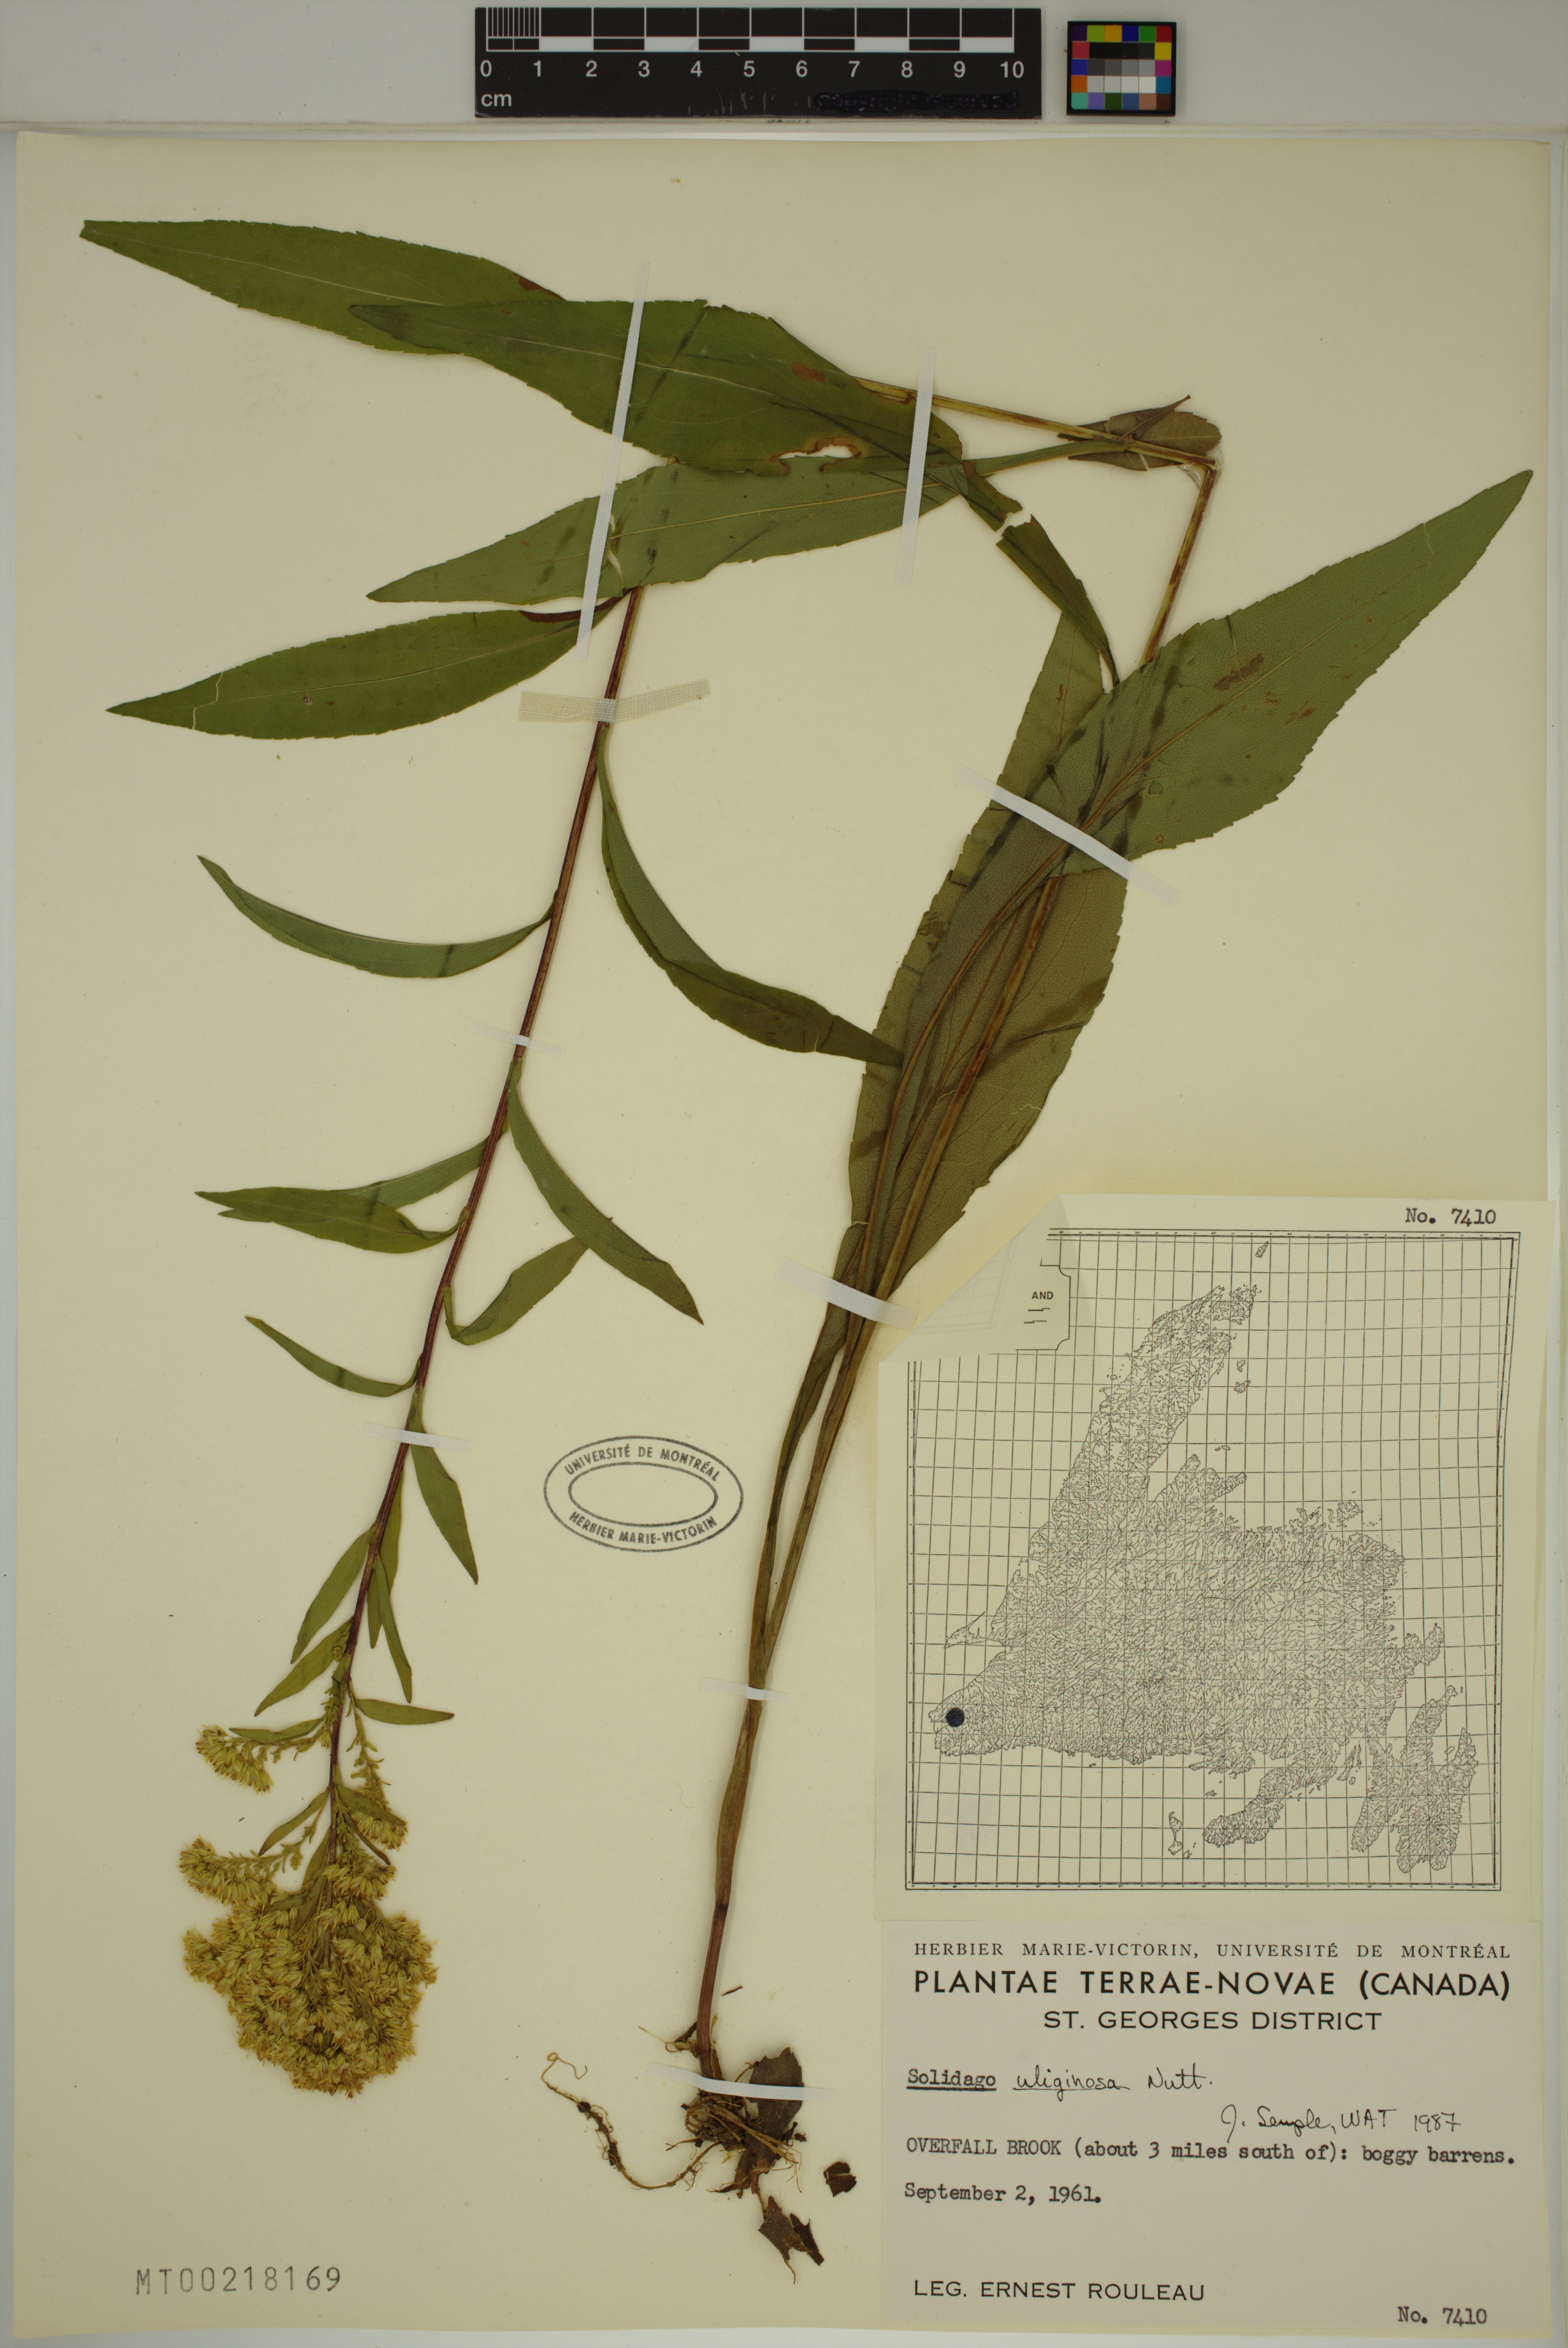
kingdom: Plantae
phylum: Tracheophyta
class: Magnoliopsida
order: Asterales
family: Asteraceae
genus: Solidago
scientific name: Solidago uliginosa
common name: Bog goldenrod
